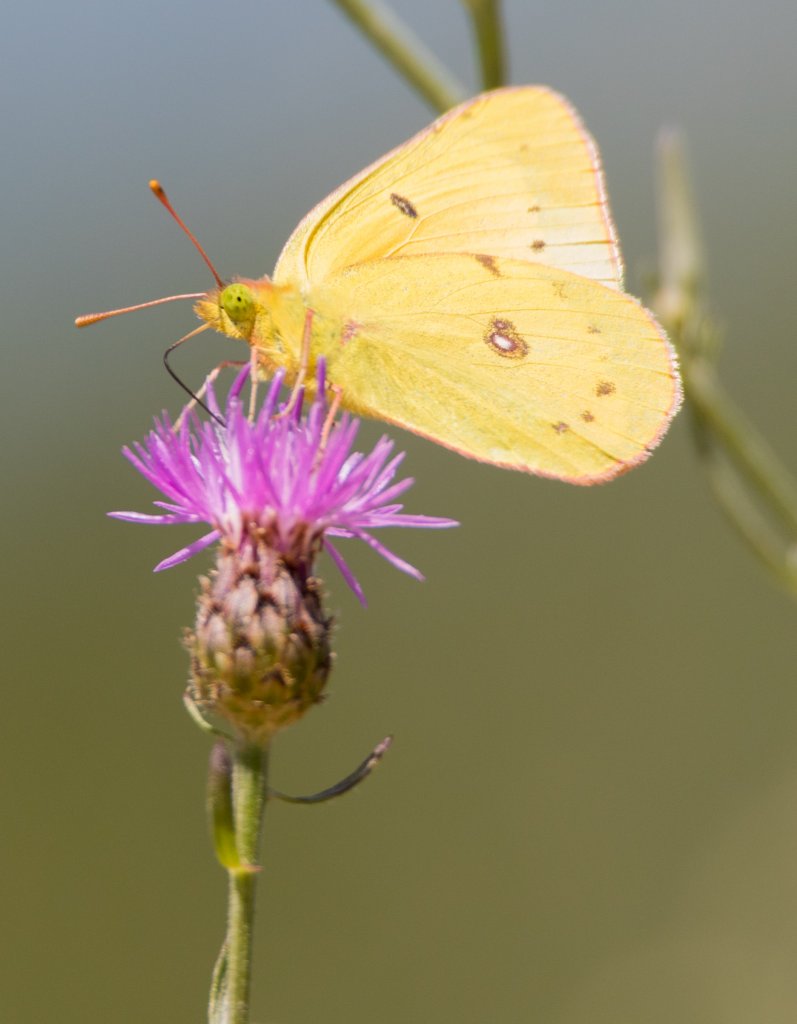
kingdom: Animalia
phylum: Arthropoda
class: Insecta
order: Lepidoptera
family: Pieridae
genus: Colias
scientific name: Colias eurytheme
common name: Orange Sulphur
